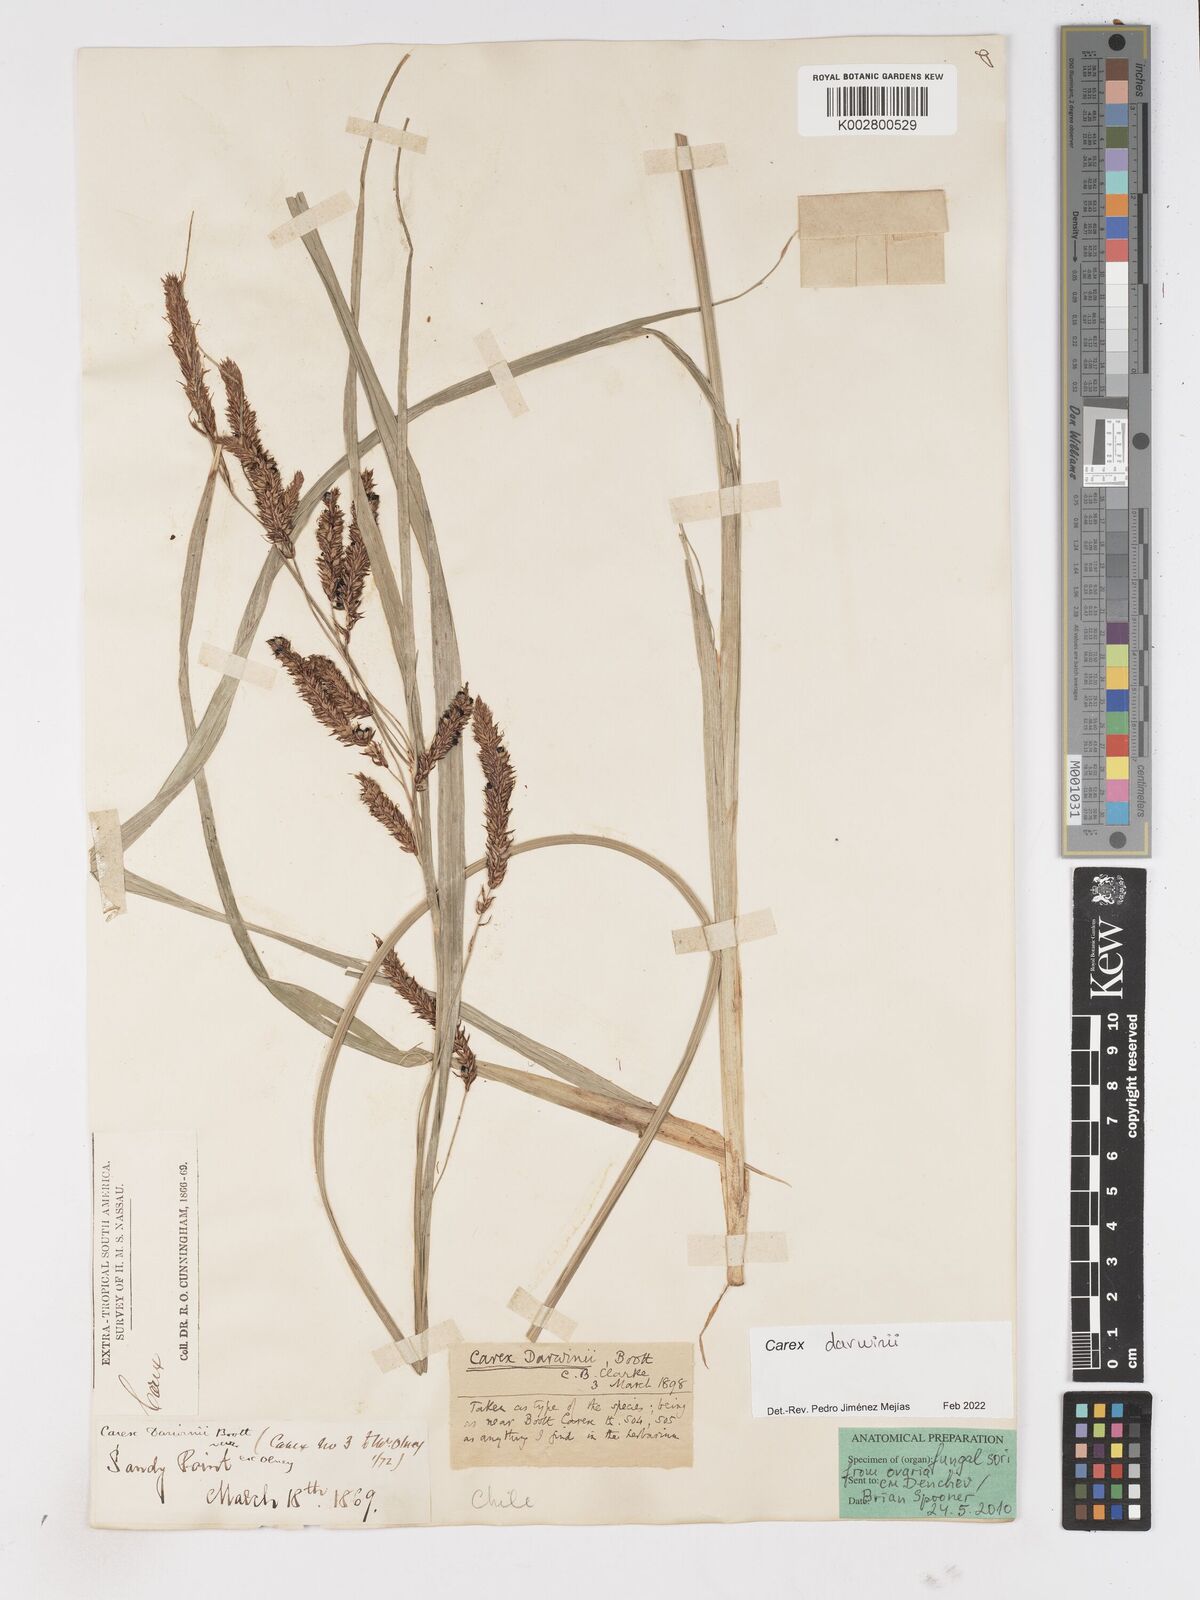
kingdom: Plantae
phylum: Tracheophyta
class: Liliopsida
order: Poales
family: Cyperaceae
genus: Carex
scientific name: Carex darwinii
